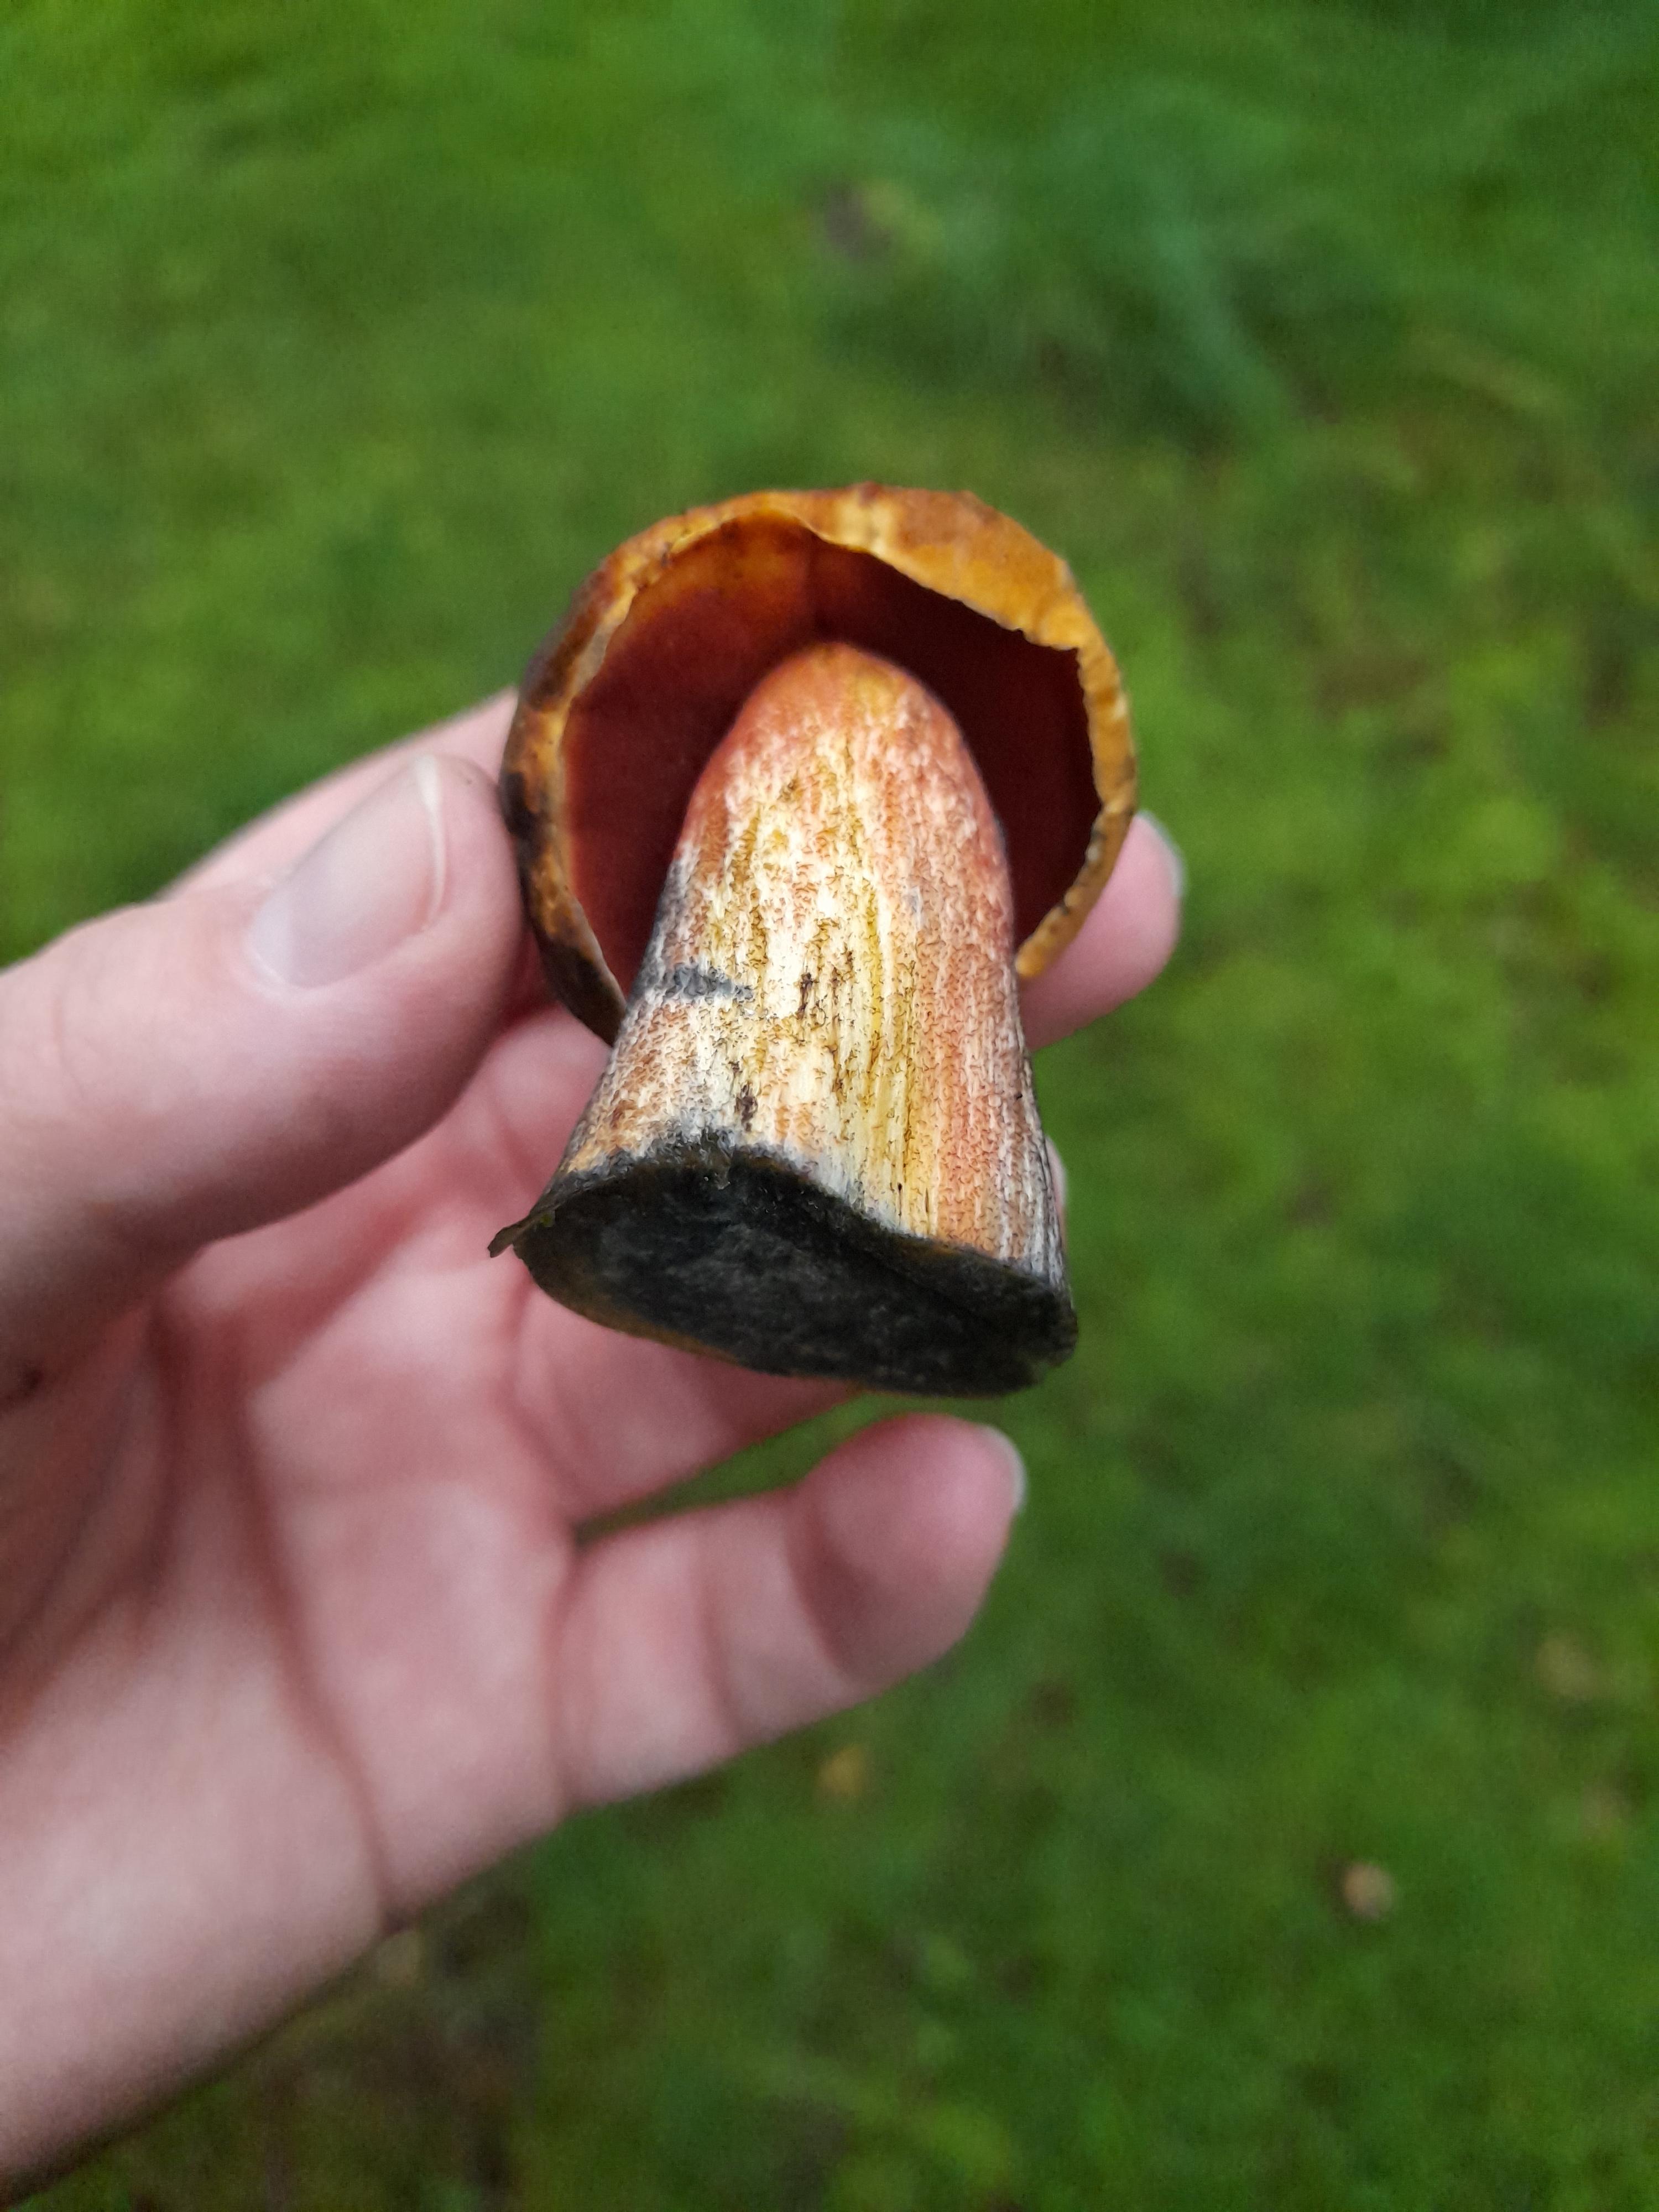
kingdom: Fungi
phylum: Basidiomycota
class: Agaricomycetes
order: Boletales
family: Boletaceae
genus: Neoboletus
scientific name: Neoboletus erythropus
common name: punktstokket indigorørhat
